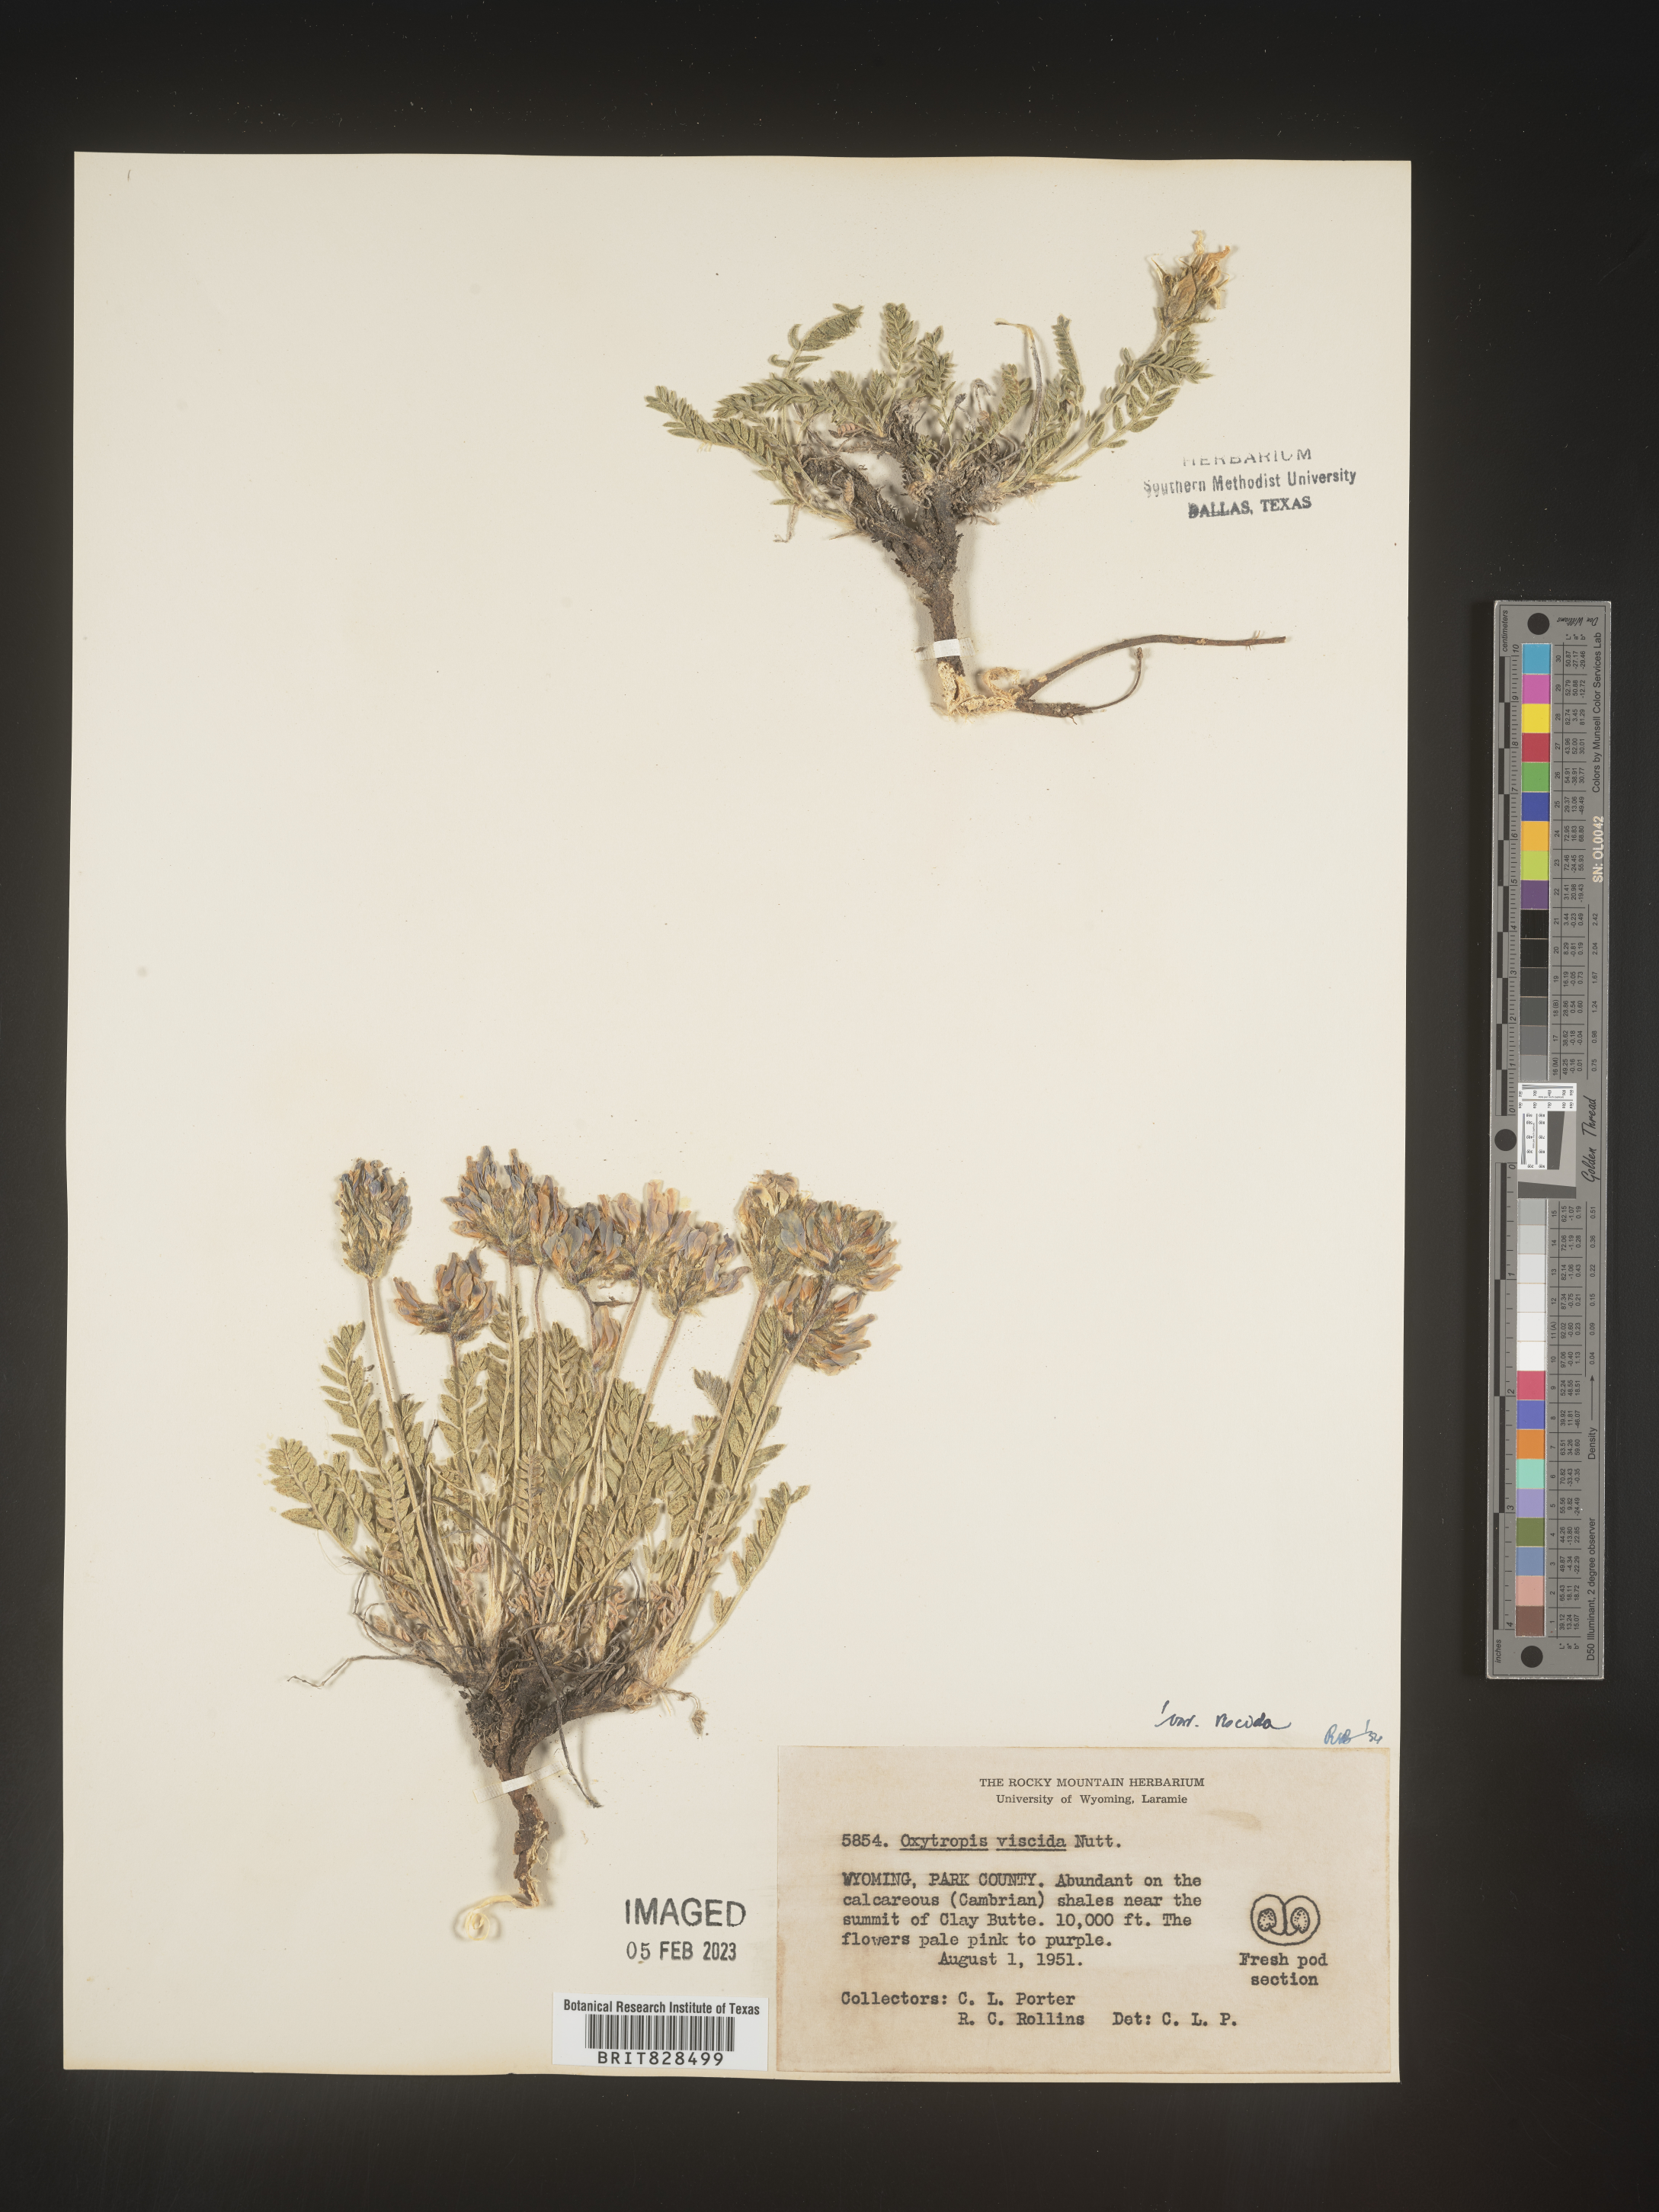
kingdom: Plantae
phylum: Tracheophyta
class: Magnoliopsida
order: Fabales
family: Fabaceae
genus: Oxytropis
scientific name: Oxytropis borealis
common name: Boreal locoweed
